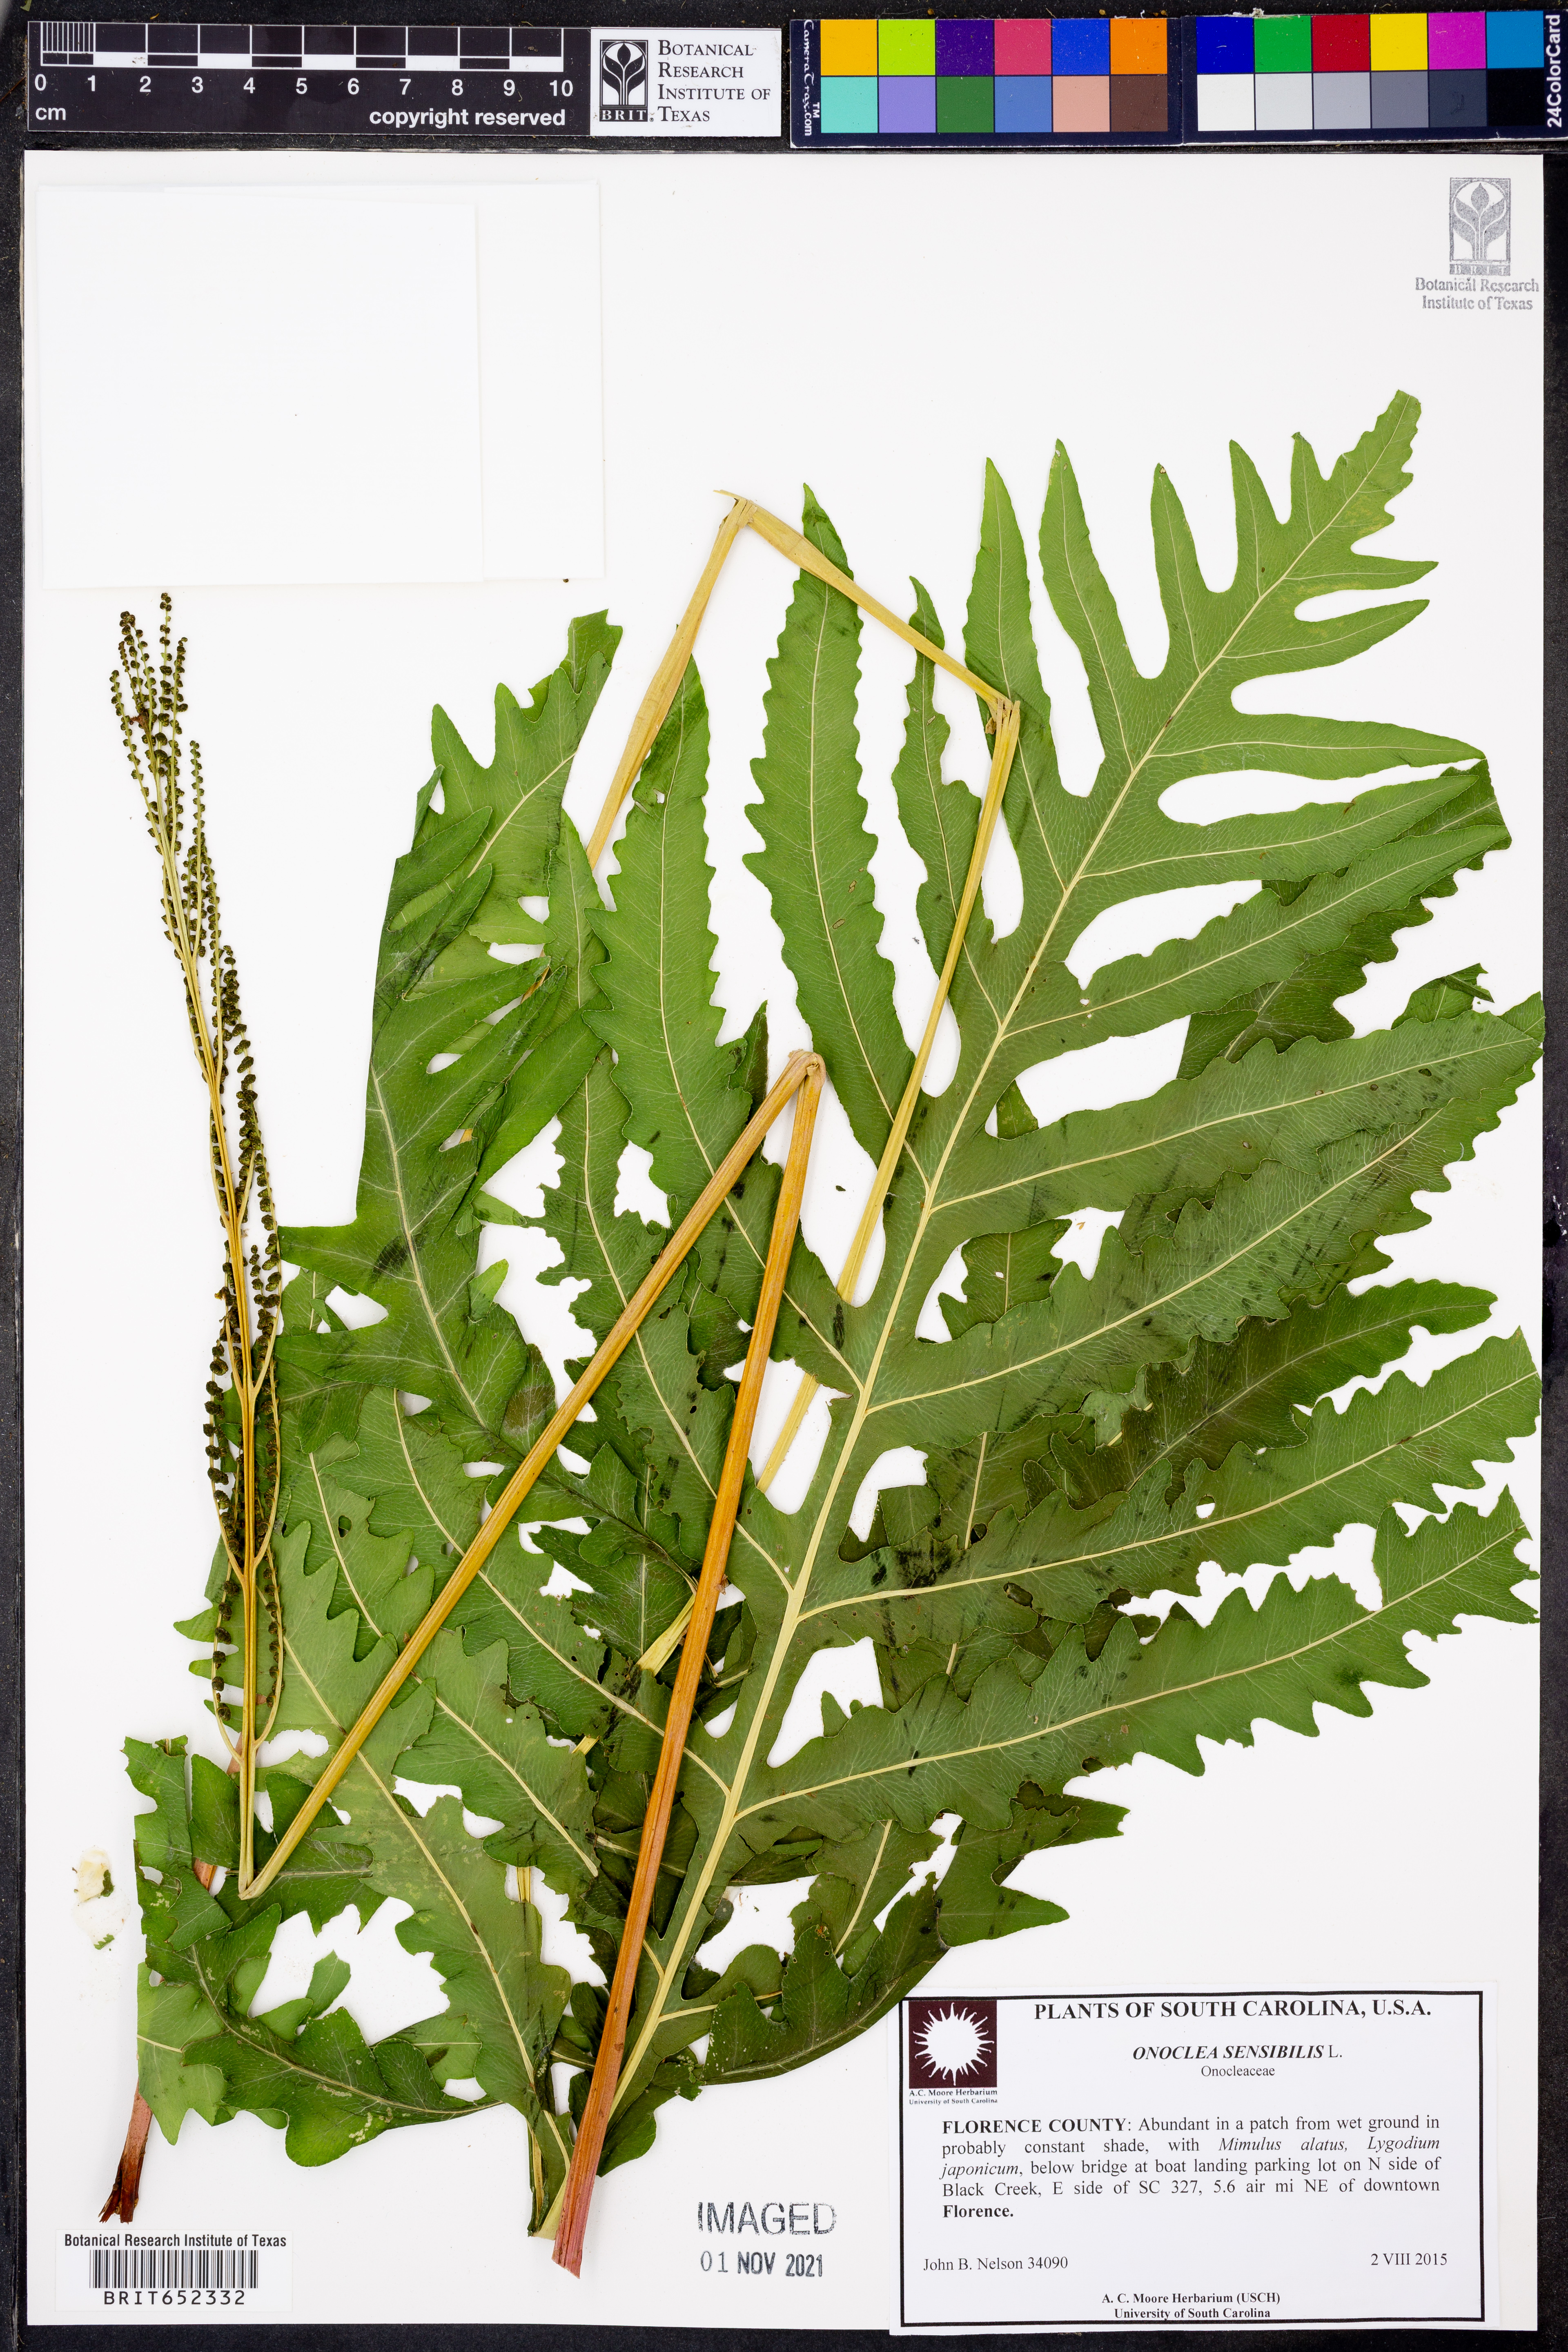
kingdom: Plantae
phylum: Tracheophyta
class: Polypodiopsida
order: Polypodiales
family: Onocleaceae
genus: Onoclea
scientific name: Onoclea sensibilis
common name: Sensitive fern
